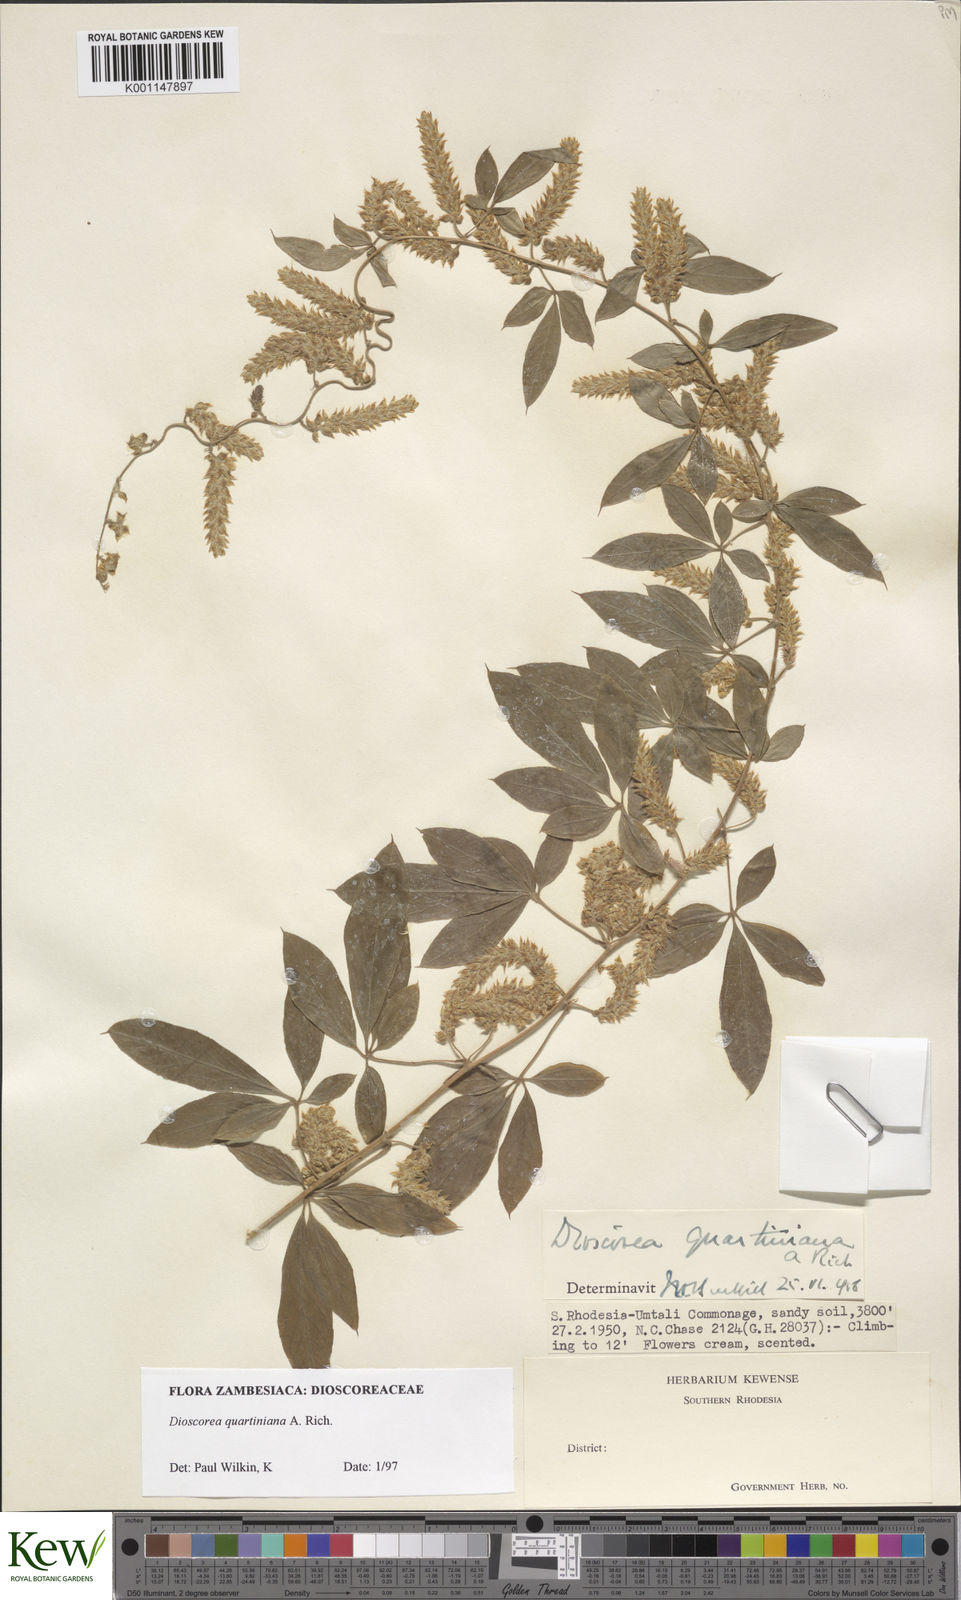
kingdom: Plantae
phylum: Tracheophyta
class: Liliopsida
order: Dioscoreales
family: Dioscoreaceae
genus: Dioscorea
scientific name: Dioscorea quartiniana
